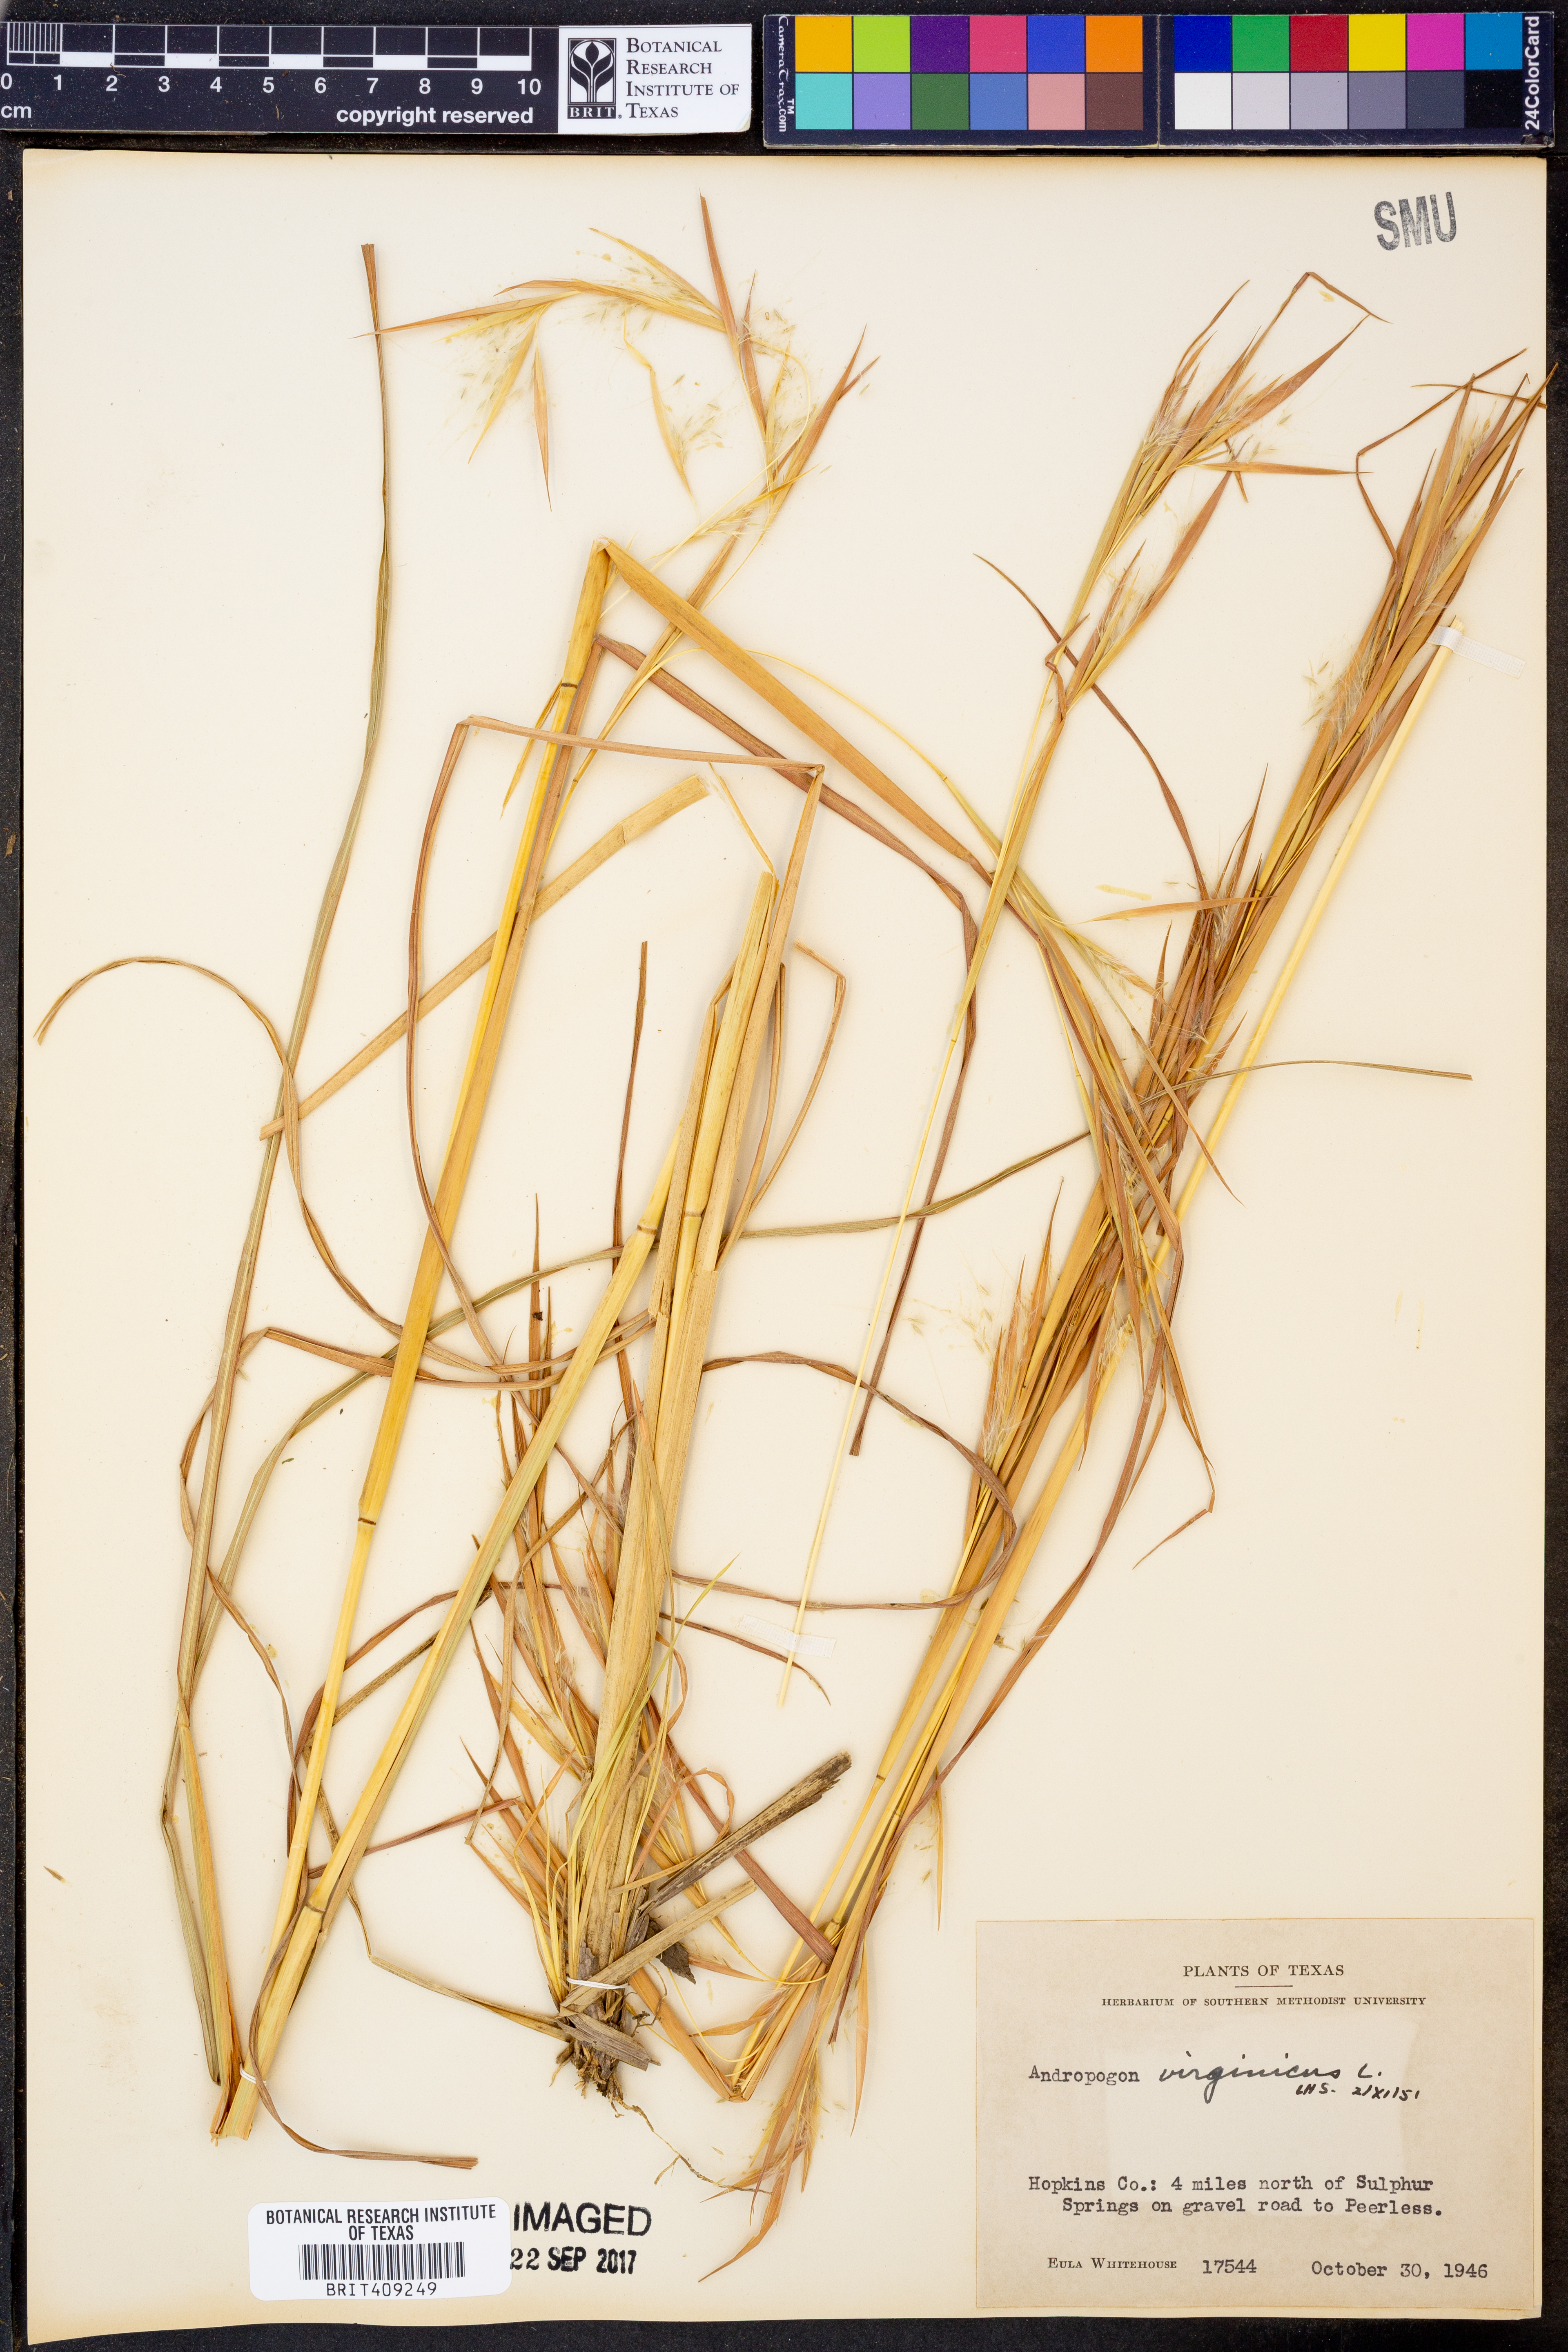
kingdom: Plantae
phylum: Tracheophyta
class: Liliopsida
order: Poales
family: Poaceae
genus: Andropogon
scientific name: Andropogon virginicus
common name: Broomsedge bluestem
